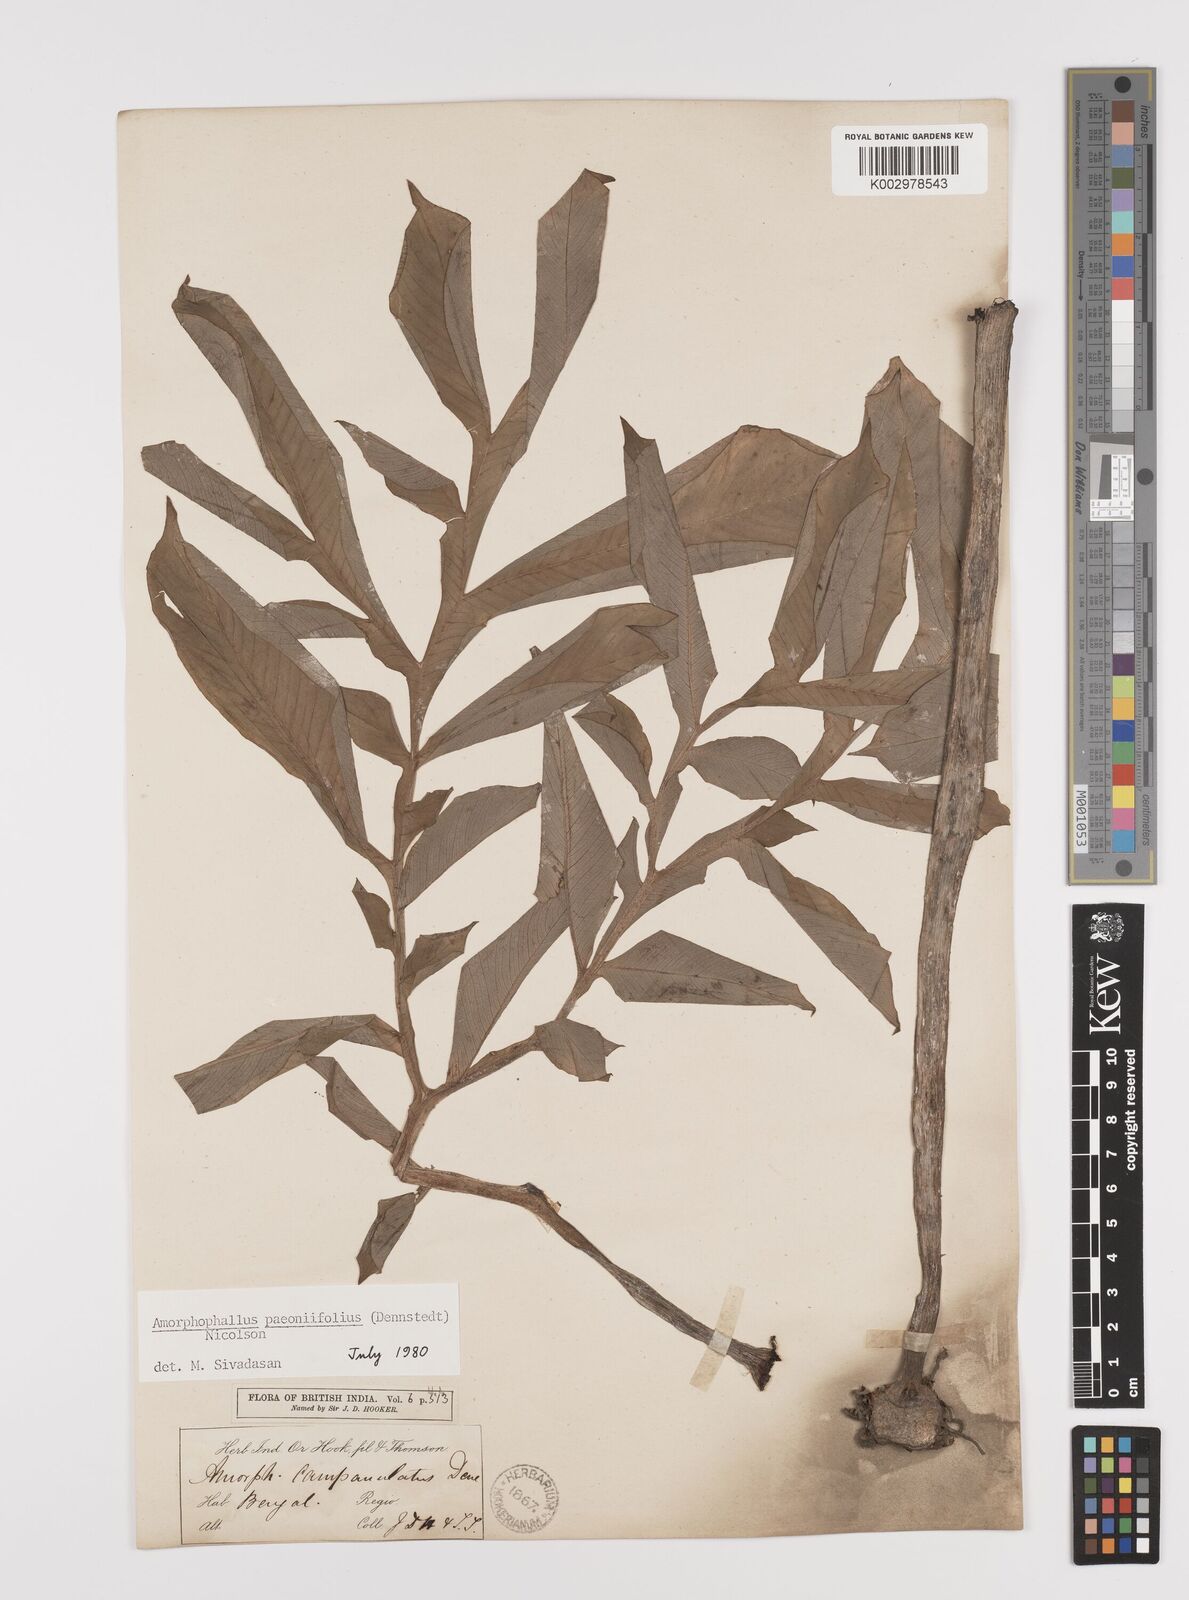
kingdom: Plantae
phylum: Tracheophyta
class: Liliopsida
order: Alismatales
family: Araceae
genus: Amorphophallus
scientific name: Amorphophallus paeoniifolius
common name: Telinga-potato
